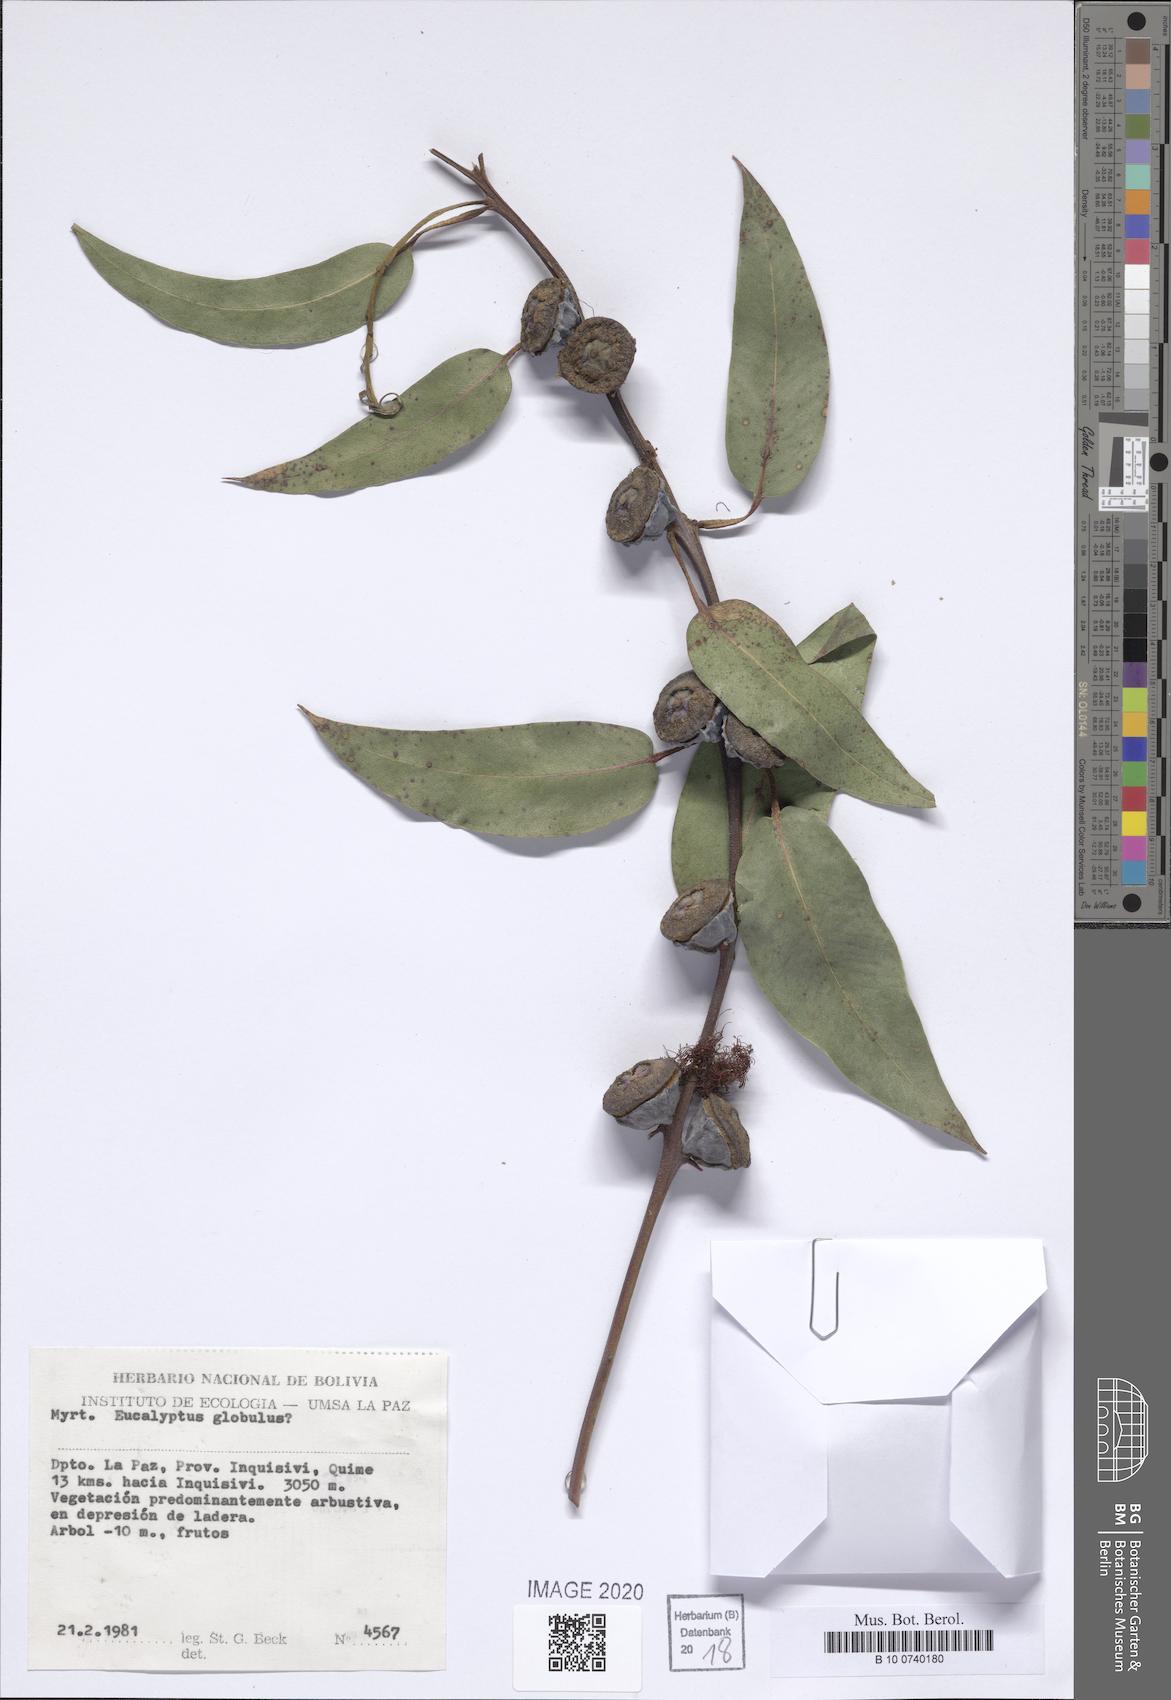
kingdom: Plantae
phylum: Tracheophyta
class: Magnoliopsida
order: Myrtales
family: Myrtaceae
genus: Eucalyptus
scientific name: Eucalyptus globulus
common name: Southern blue-gum
